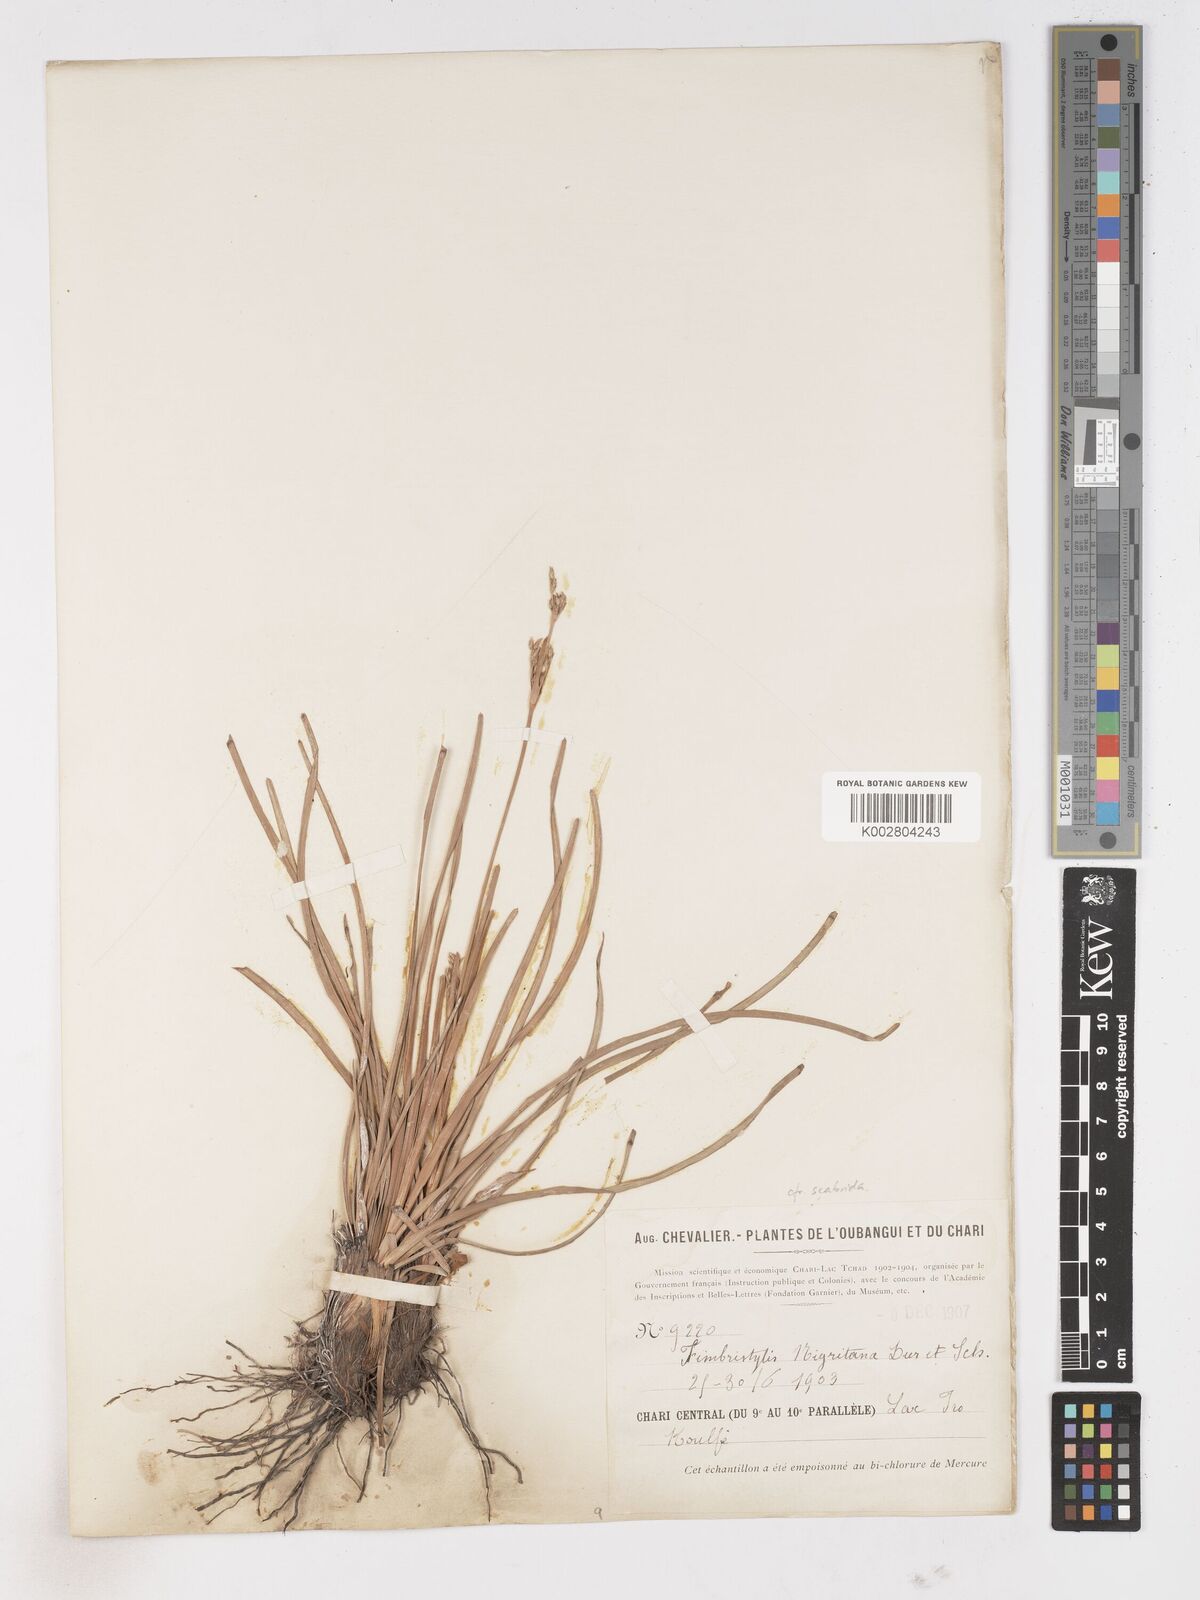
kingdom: Plantae
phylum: Tracheophyta
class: Liliopsida
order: Poales
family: Cyperaceae
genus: Fimbristylis
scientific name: Fimbristylis scabrida
